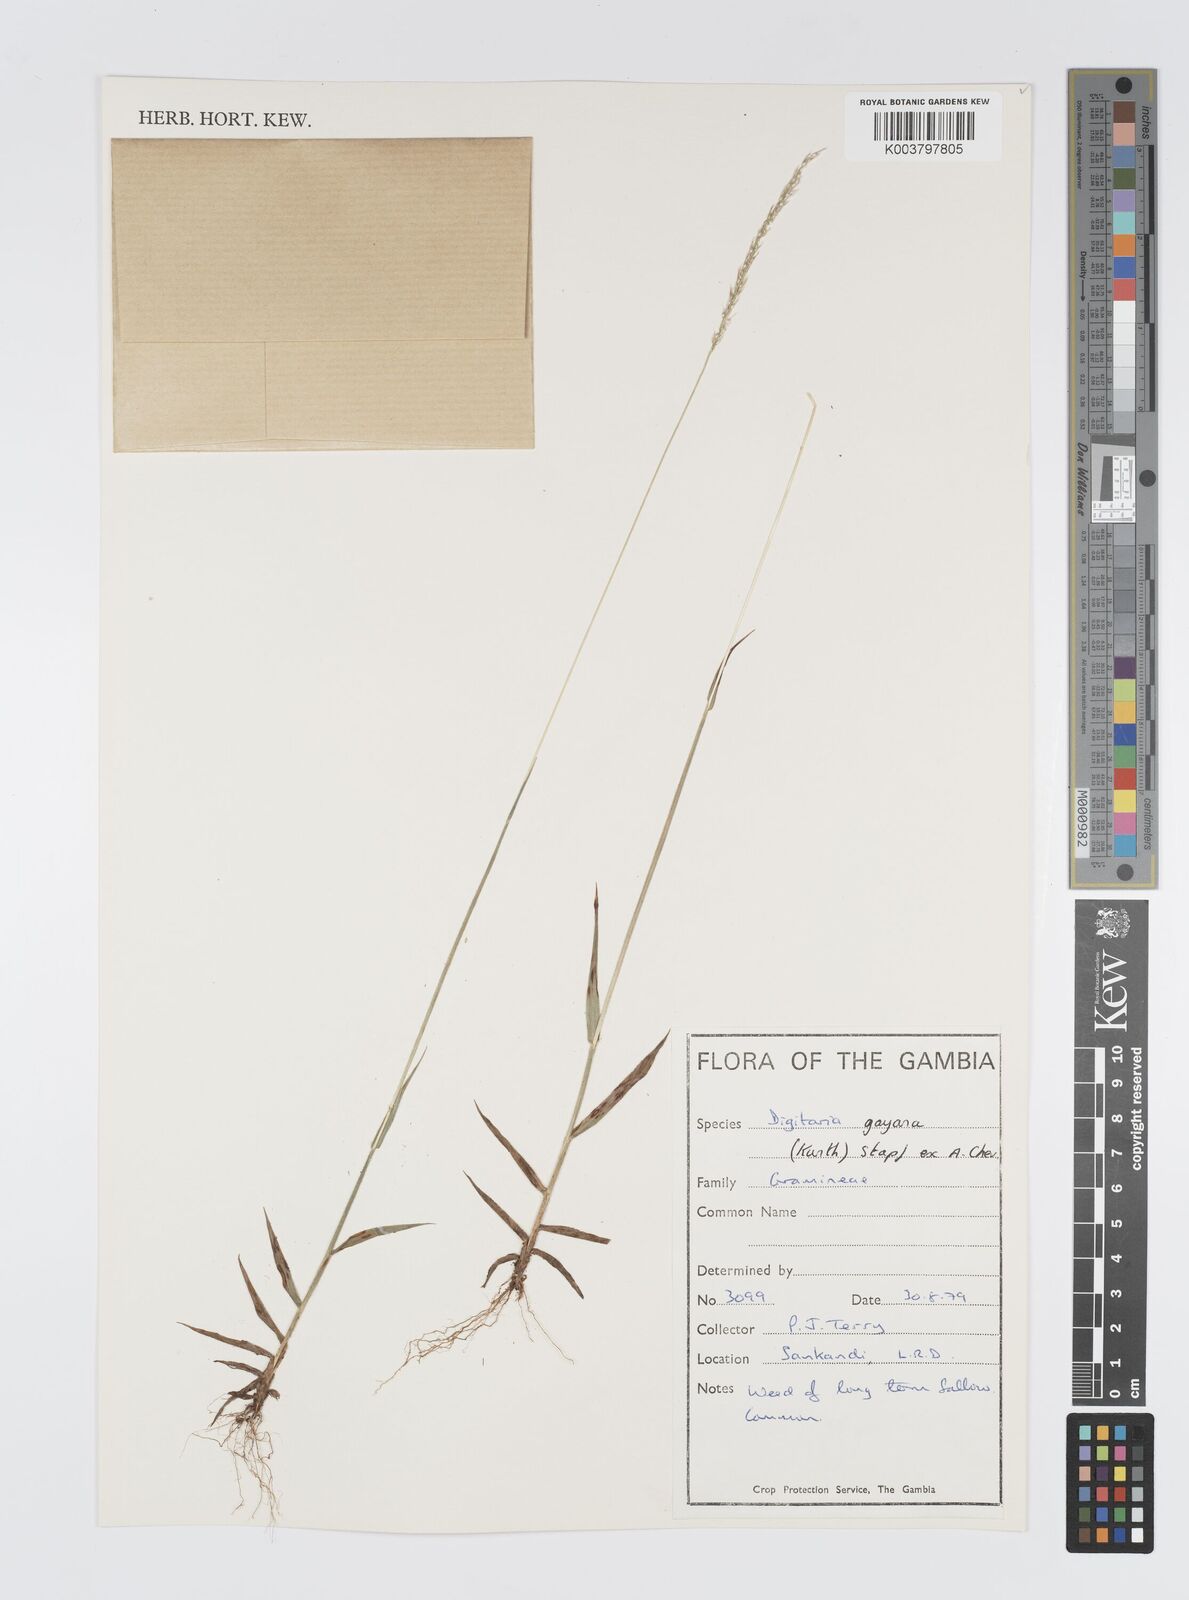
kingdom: Plantae
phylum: Tracheophyta
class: Liliopsida
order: Poales
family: Poaceae
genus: Digitaria
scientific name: Digitaria gayana
